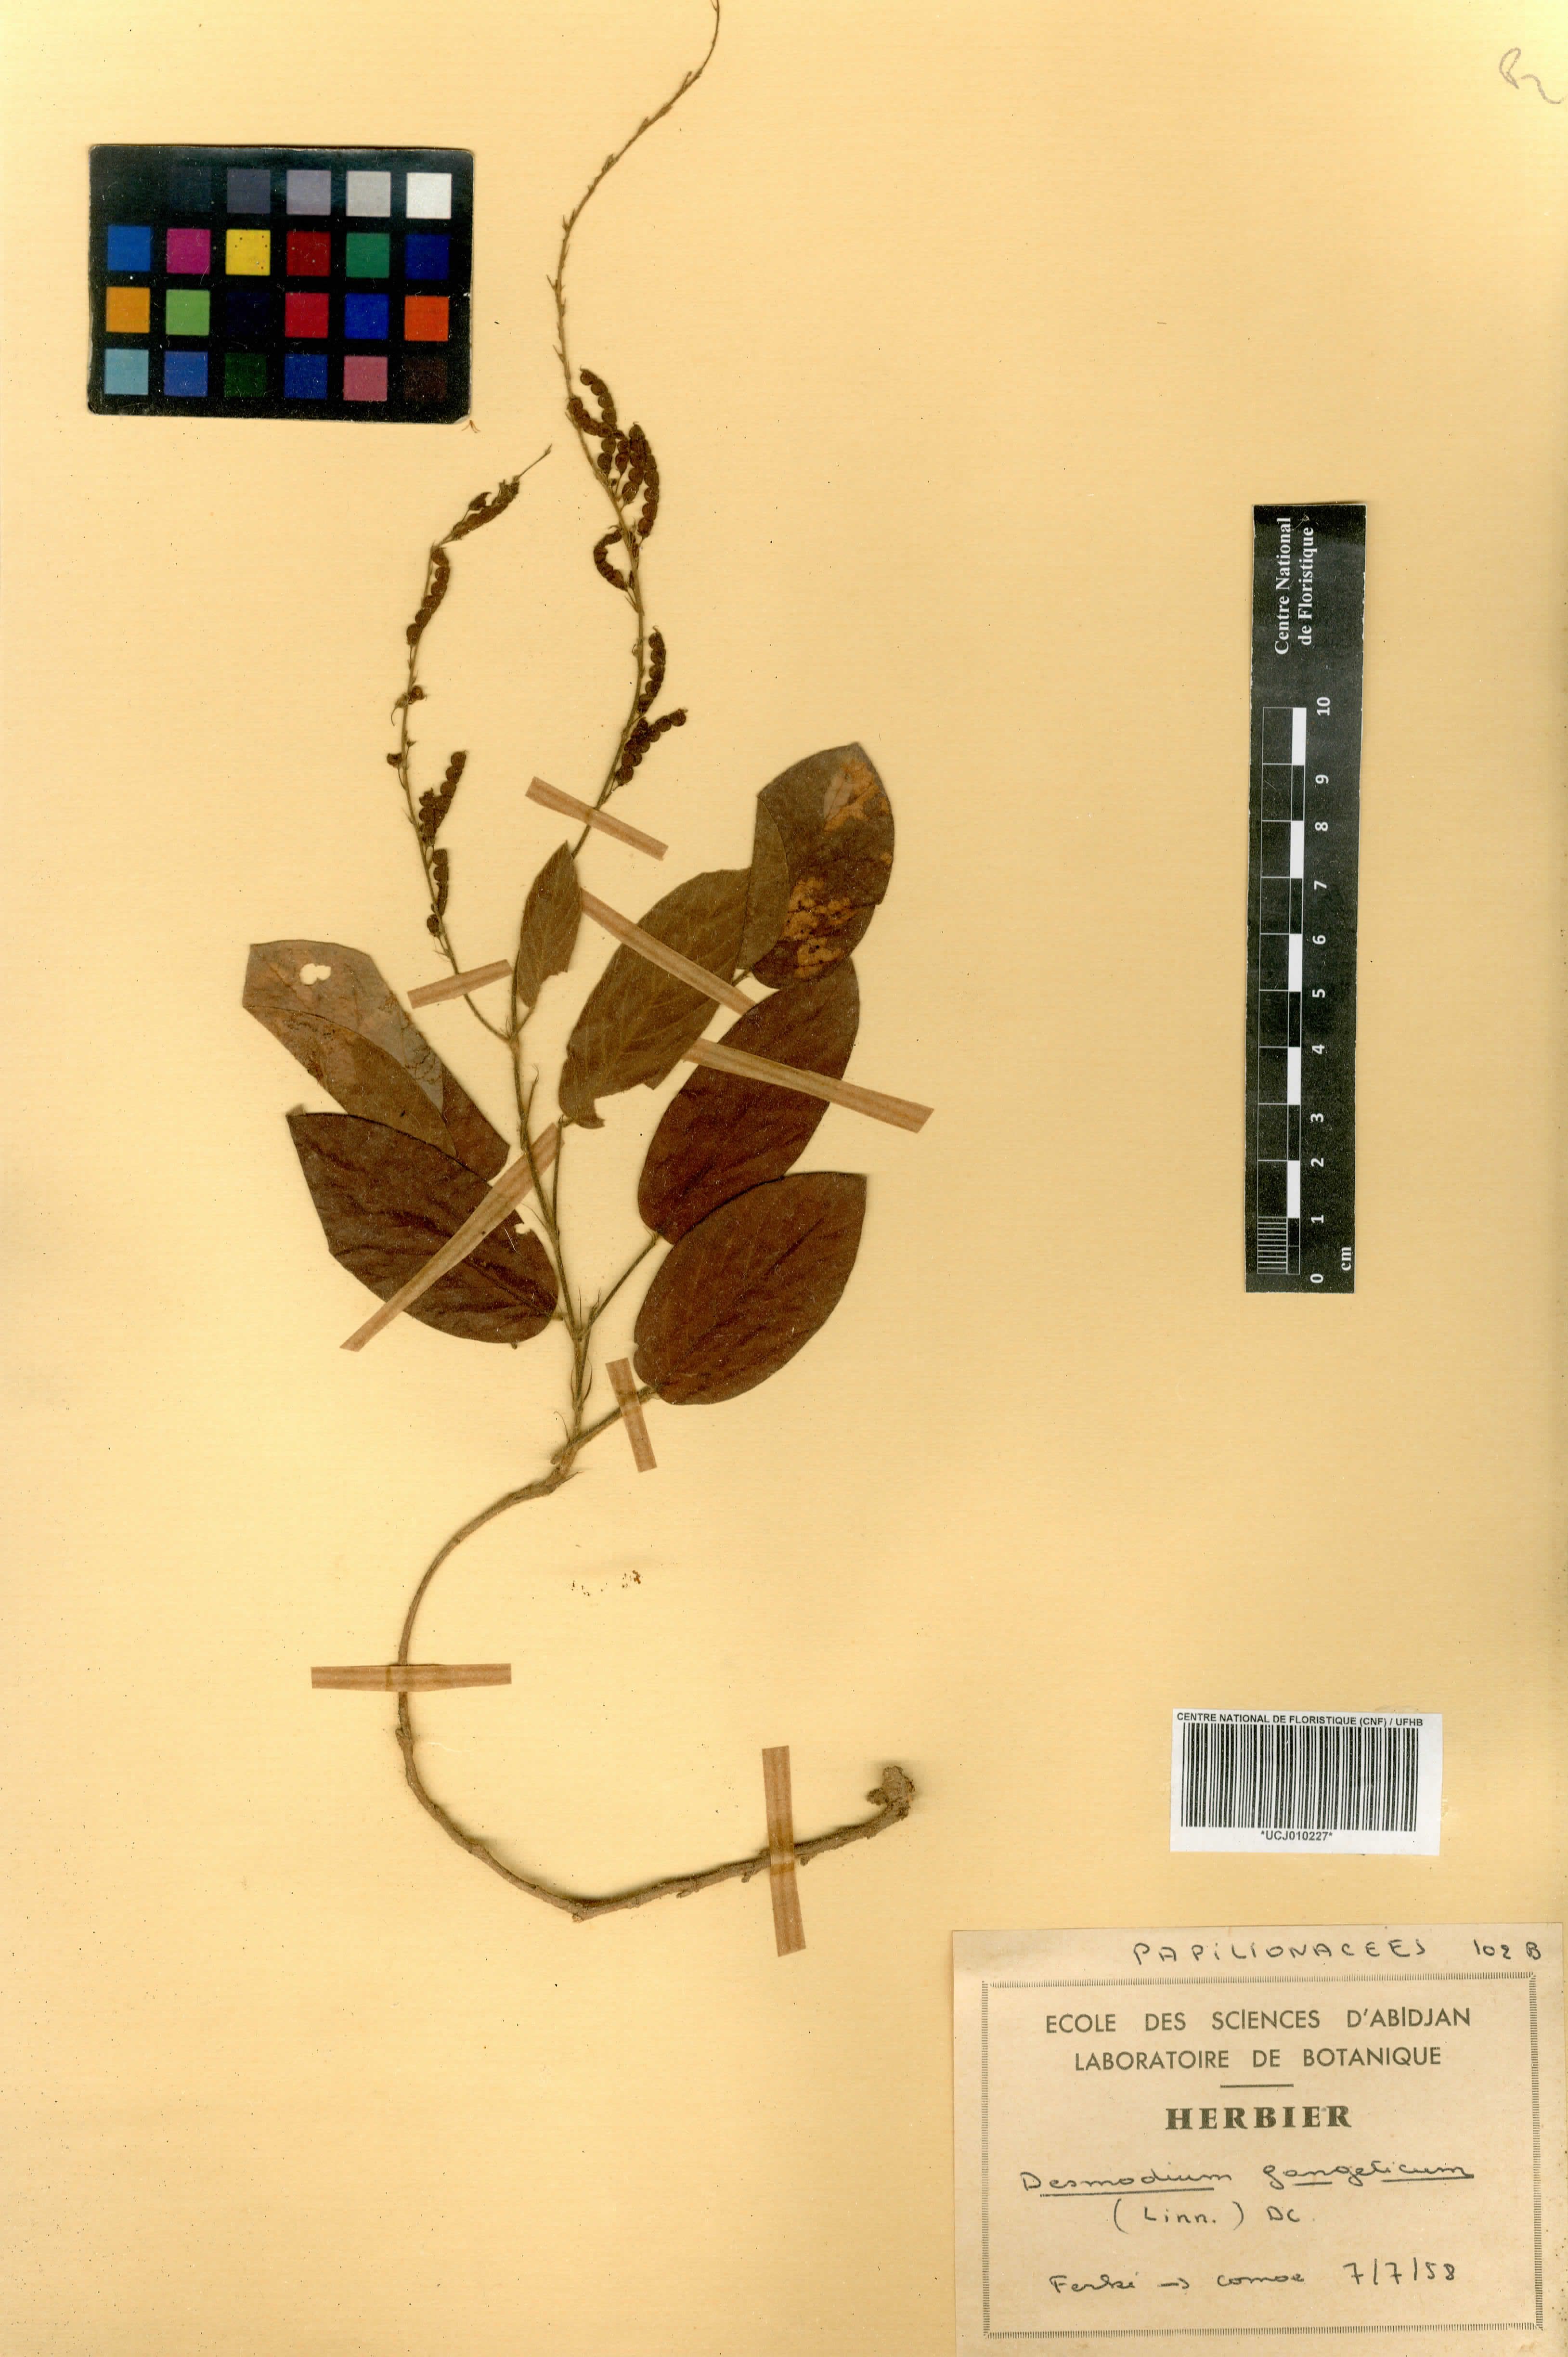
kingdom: Plantae
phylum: Tracheophyta
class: Magnoliopsida
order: Fabales
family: Fabaceae
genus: Pleurolobus
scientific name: Pleurolobus gangeticus
